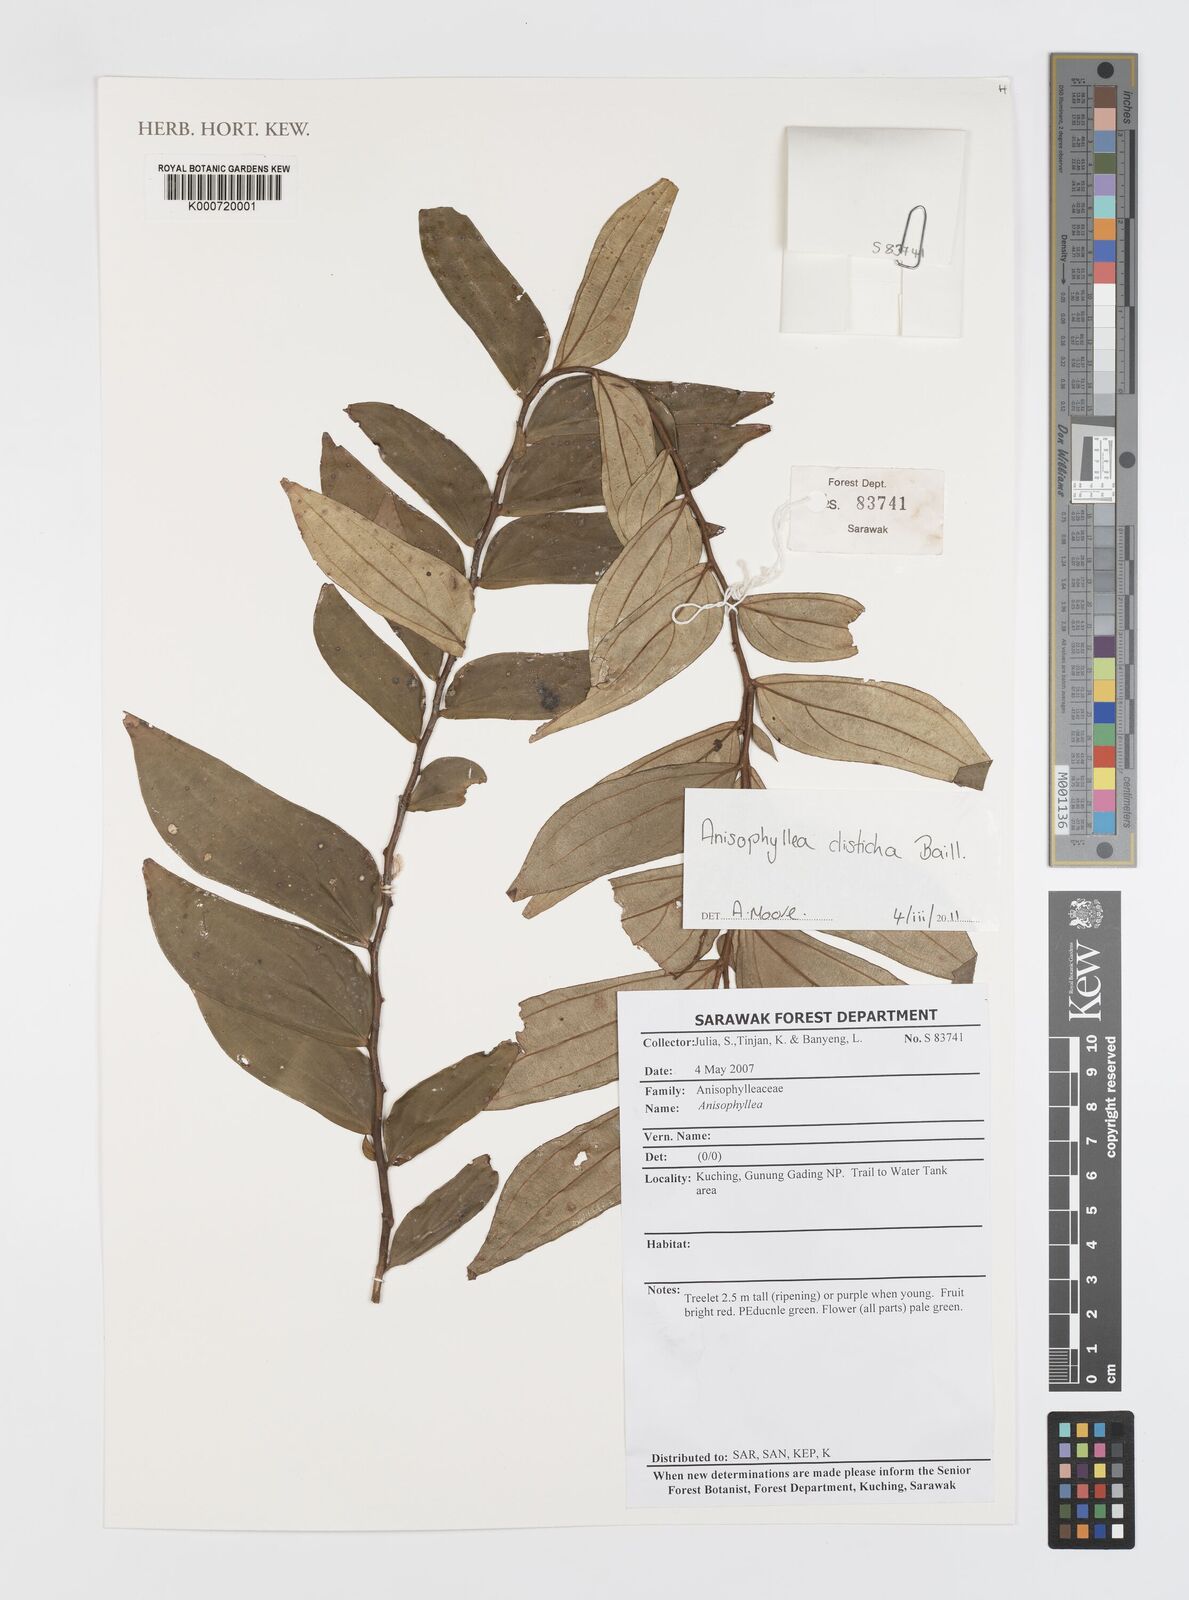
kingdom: Plantae
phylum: Tracheophyta
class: Magnoliopsida
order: Cucurbitales
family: Anisophylleaceae
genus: Anisophyllea
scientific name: Anisophyllea disticha
